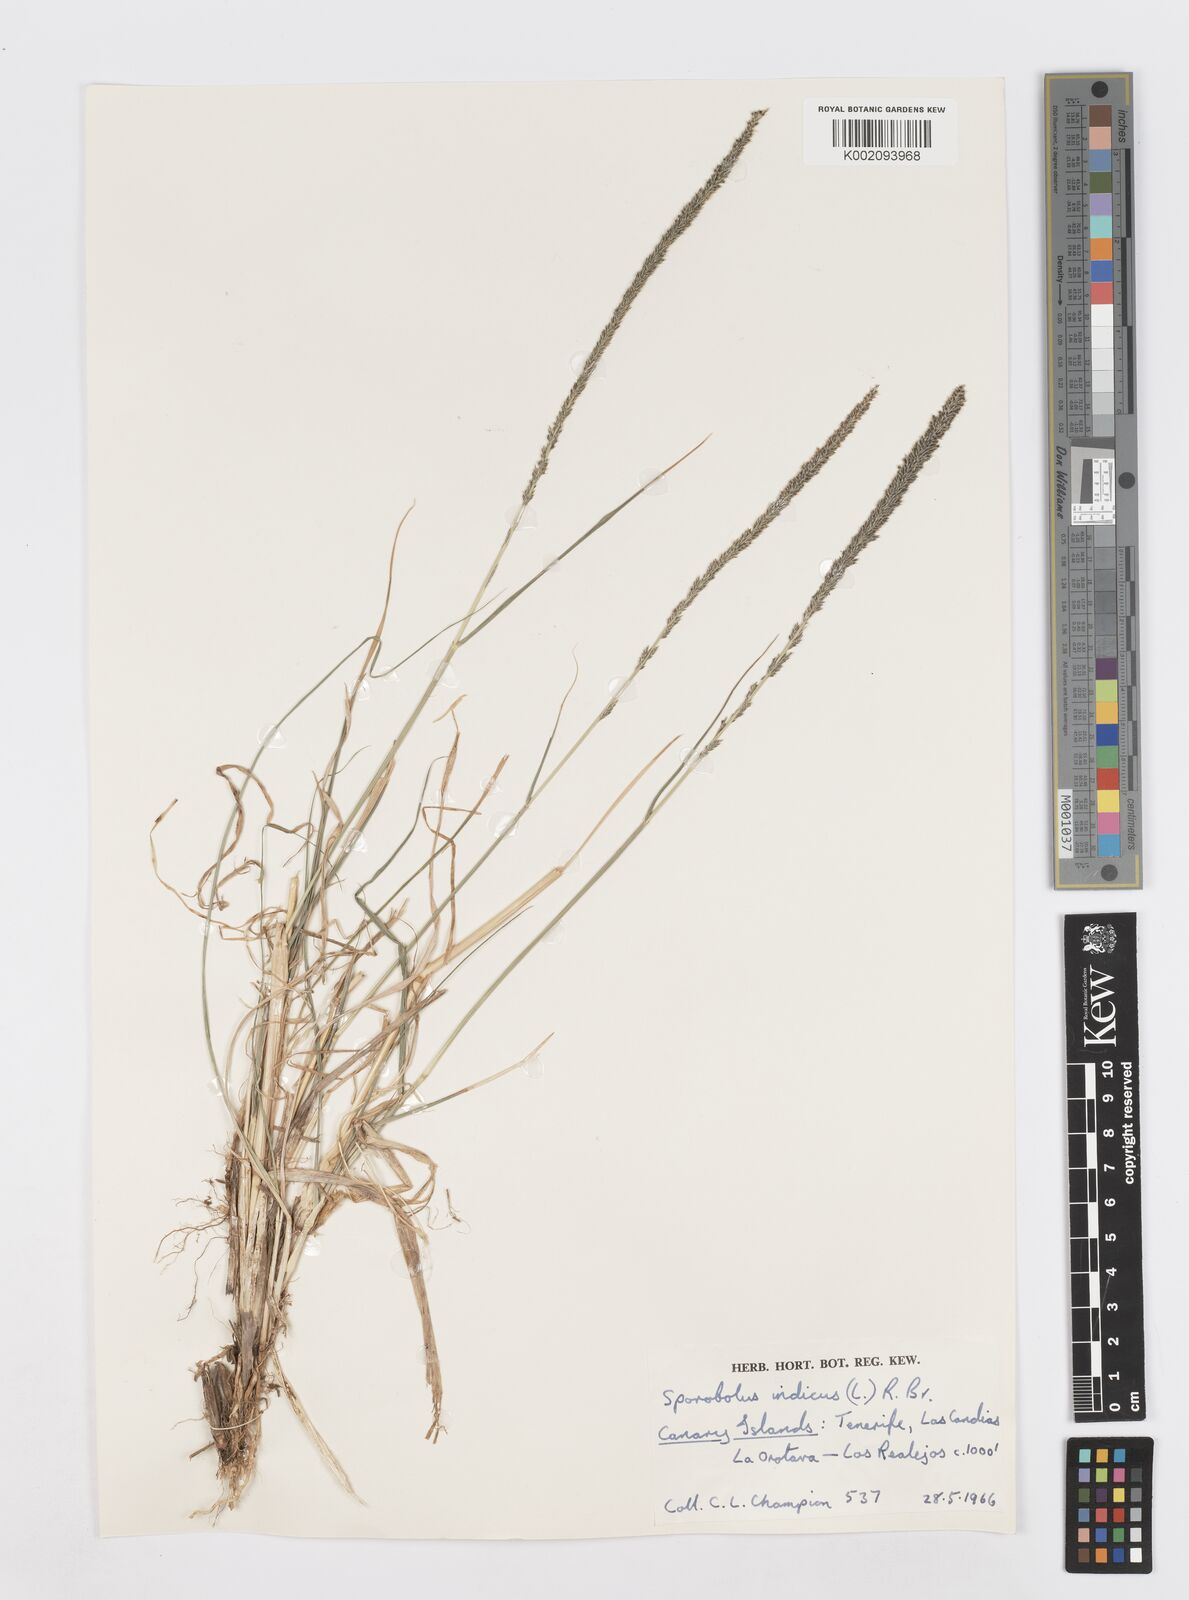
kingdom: Plantae
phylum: Tracheophyta
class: Liliopsida
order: Poales
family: Poaceae
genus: Sporobolus
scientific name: Sporobolus africanus
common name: African dropseed
